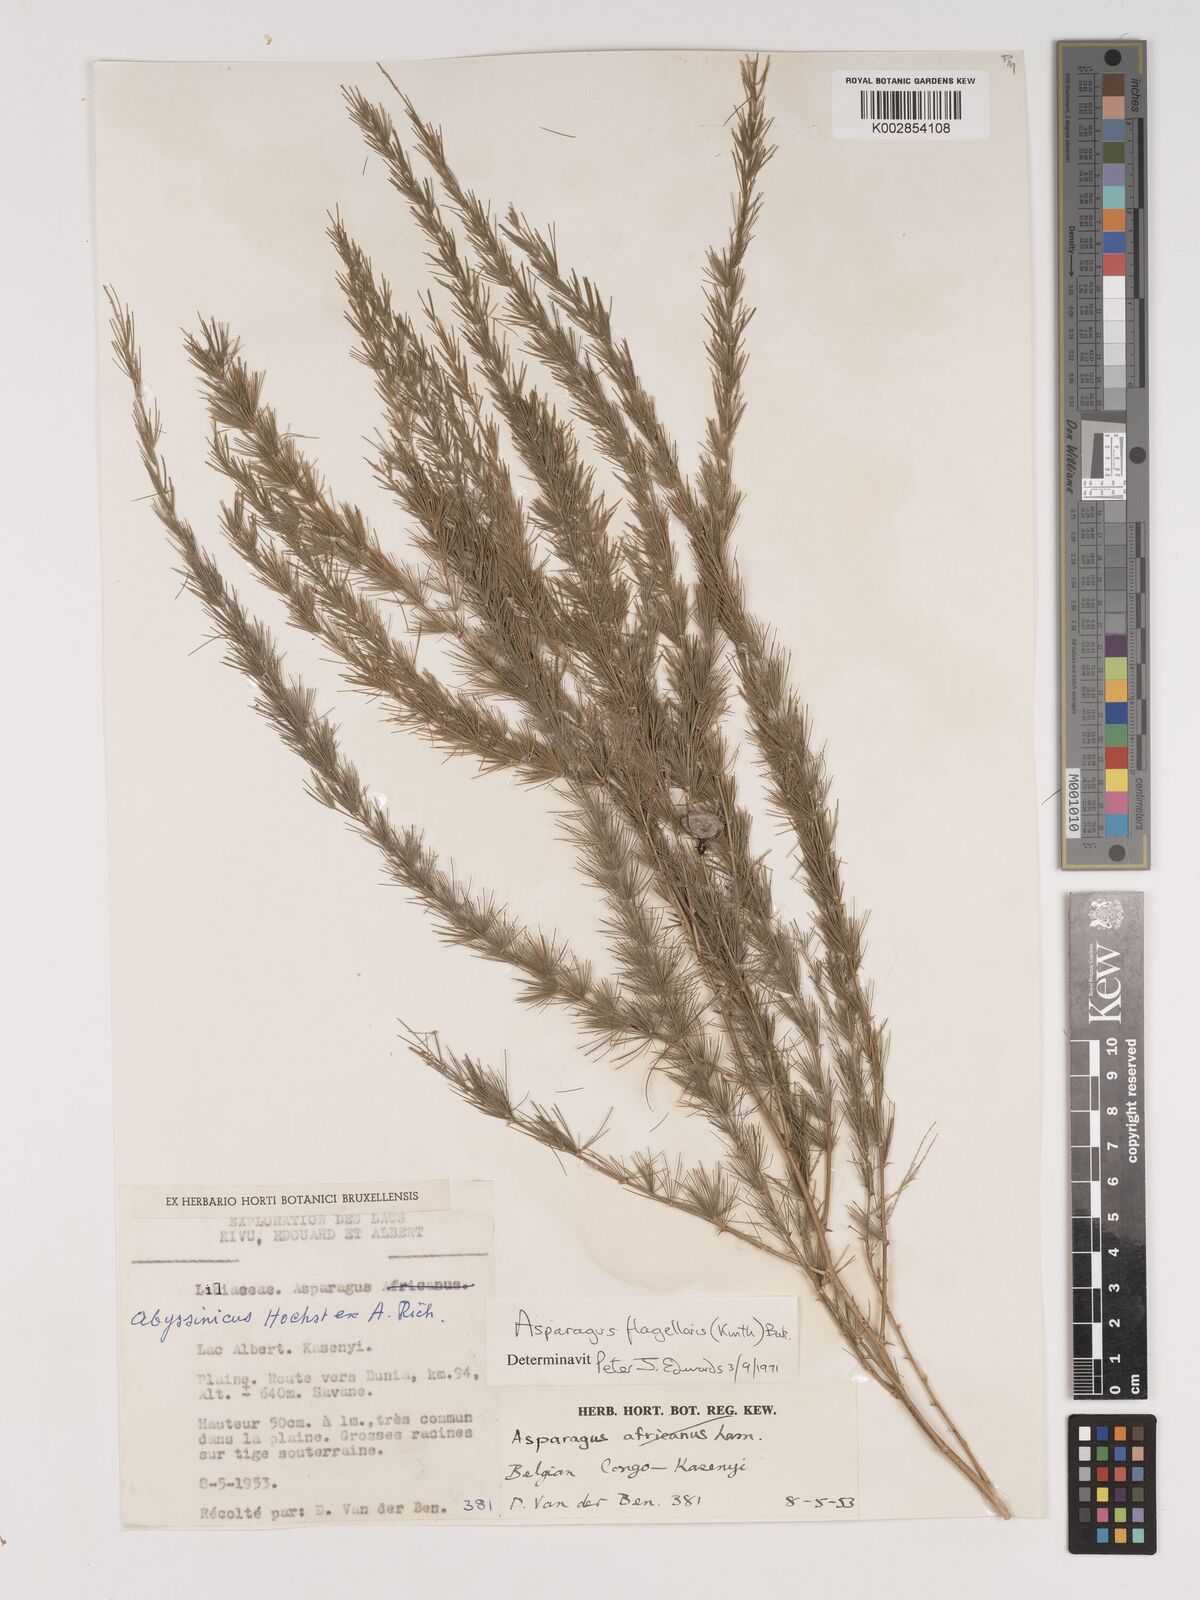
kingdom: Plantae
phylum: Tracheophyta
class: Liliopsida
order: Asparagales
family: Asparagaceae
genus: Asparagus
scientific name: Asparagus flagellaris
